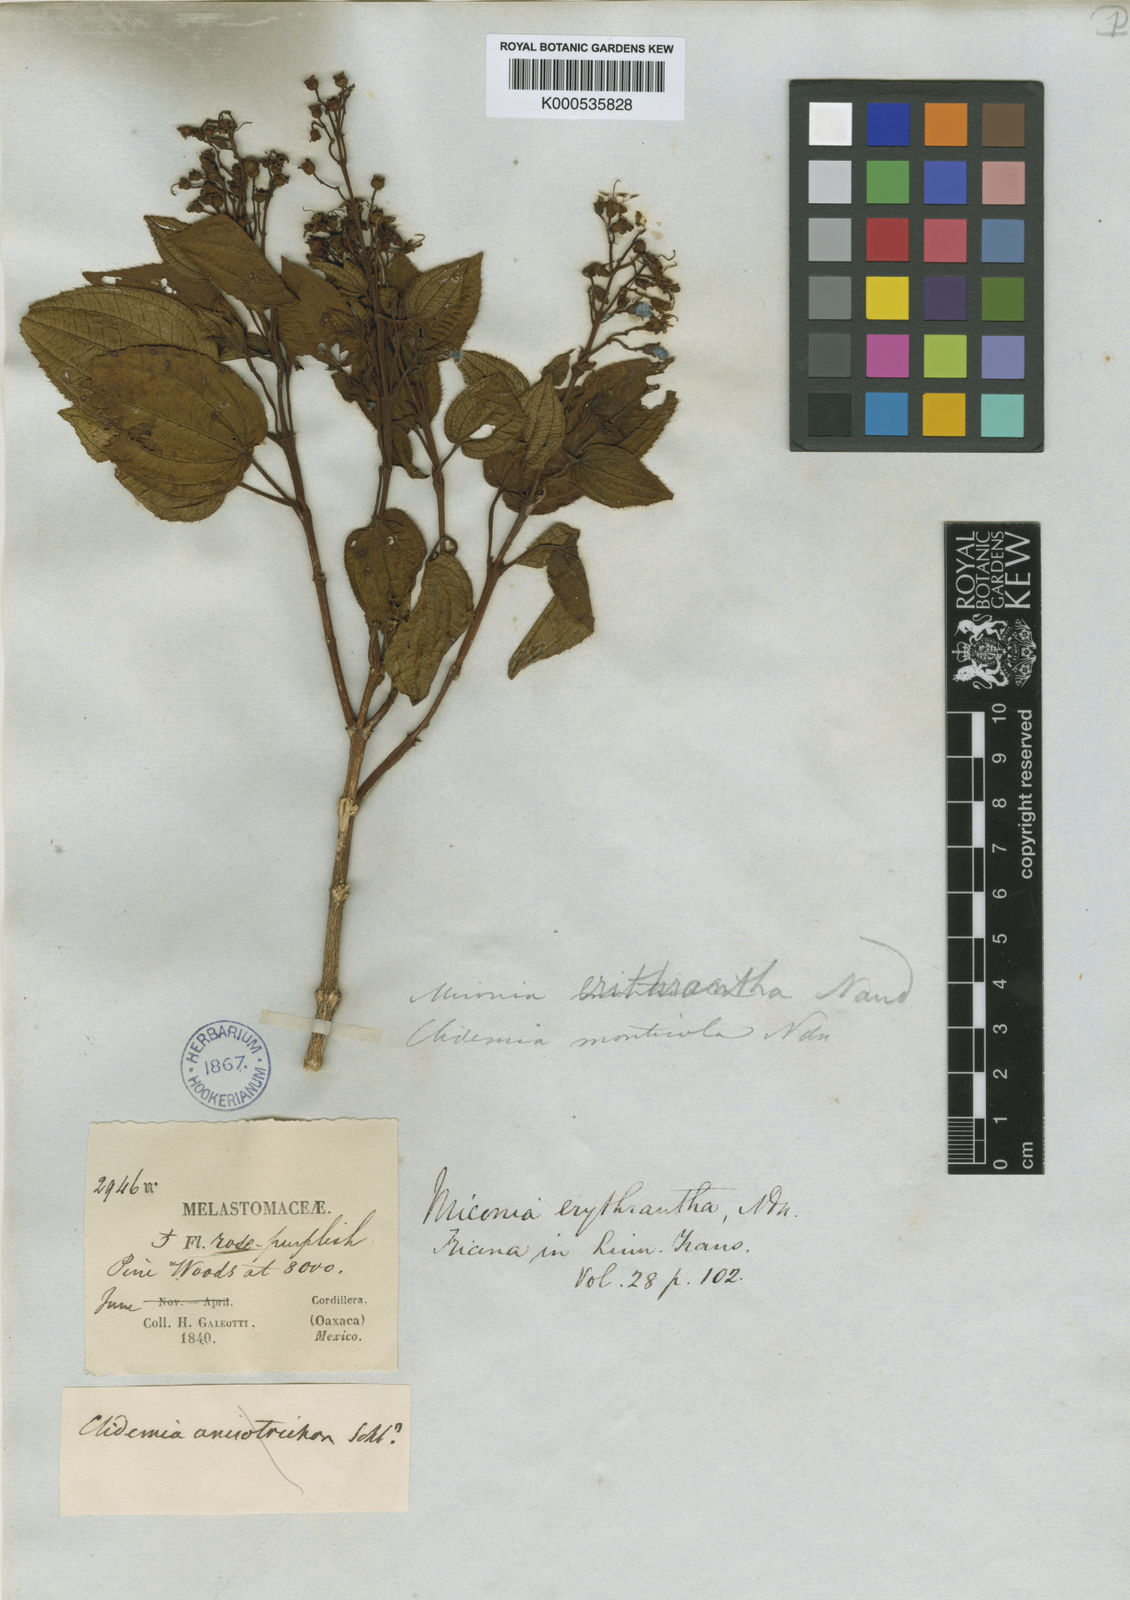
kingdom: Plantae
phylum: Tracheophyta
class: Magnoliopsida
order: Myrtales
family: Melastomataceae
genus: Miconia
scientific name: Miconia erythrantha
